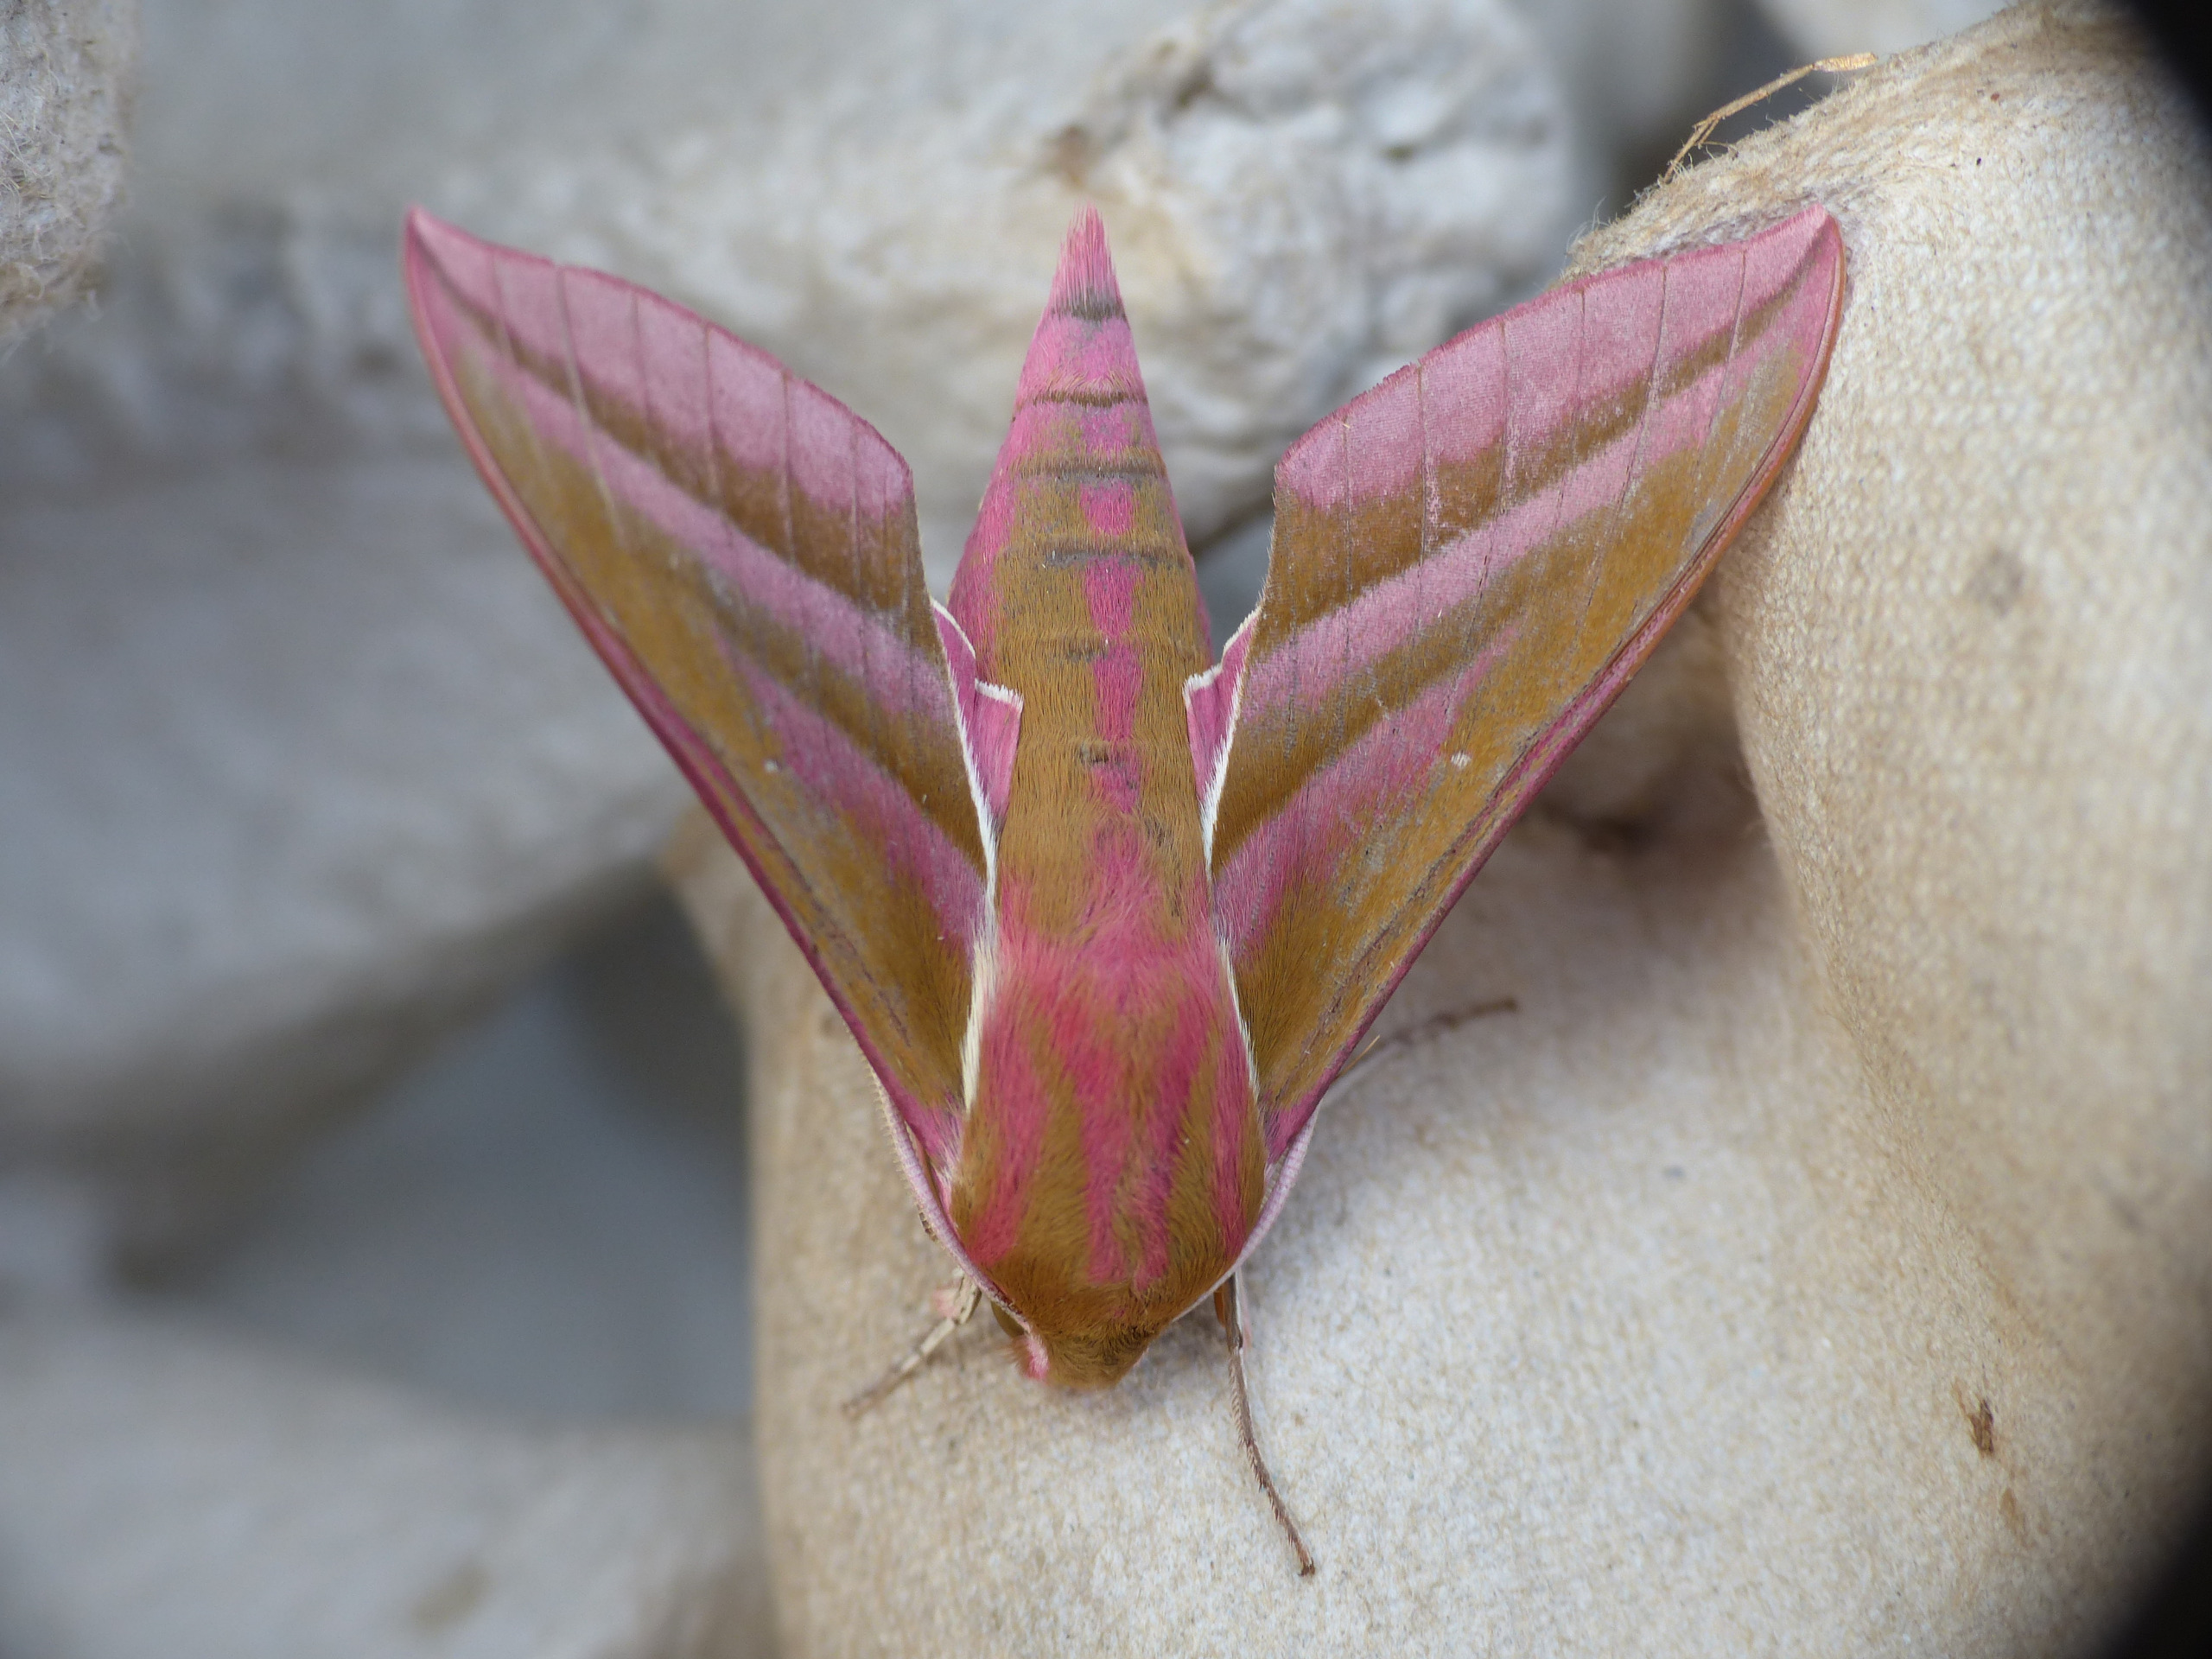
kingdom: Animalia
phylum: Arthropoda
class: Insecta
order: Lepidoptera
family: Sphingidae
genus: Deilephila
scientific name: Deilephila elpenor
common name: Dueurtsværmer
